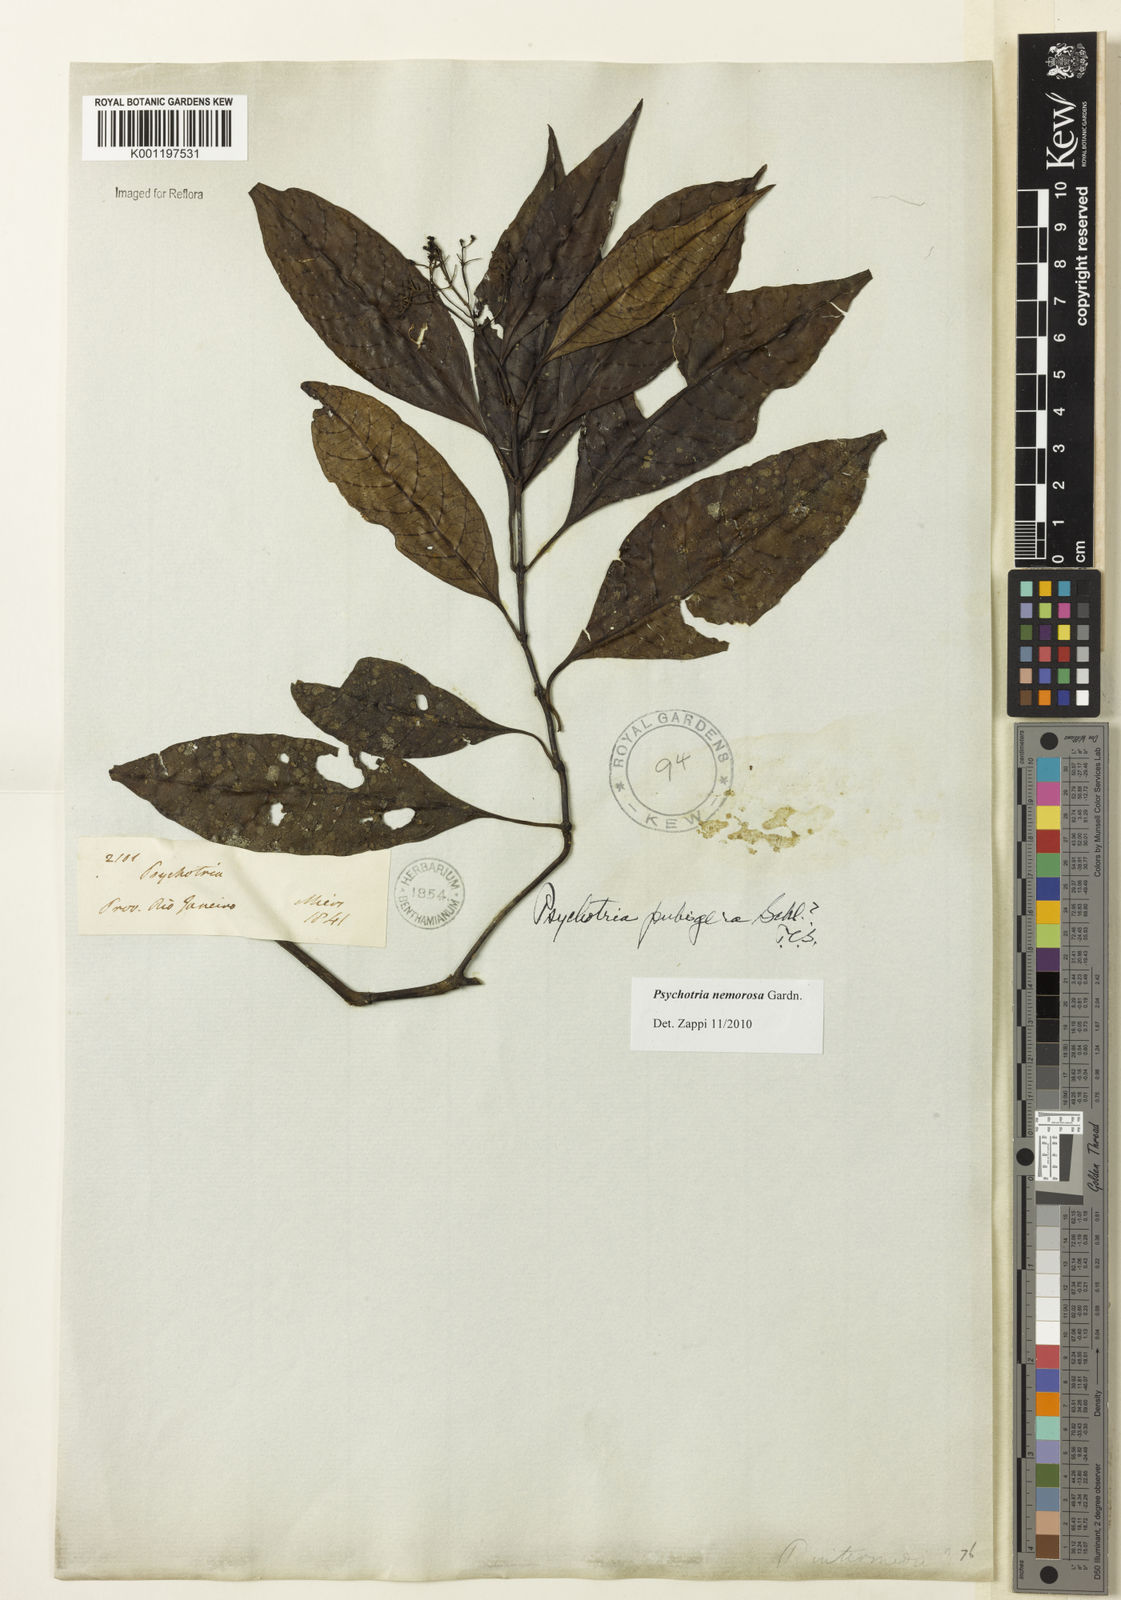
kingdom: Plantae
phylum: Tracheophyta
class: Magnoliopsida
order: Gentianales
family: Rubiaceae
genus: Psychotria
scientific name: Psychotria nemorosa
